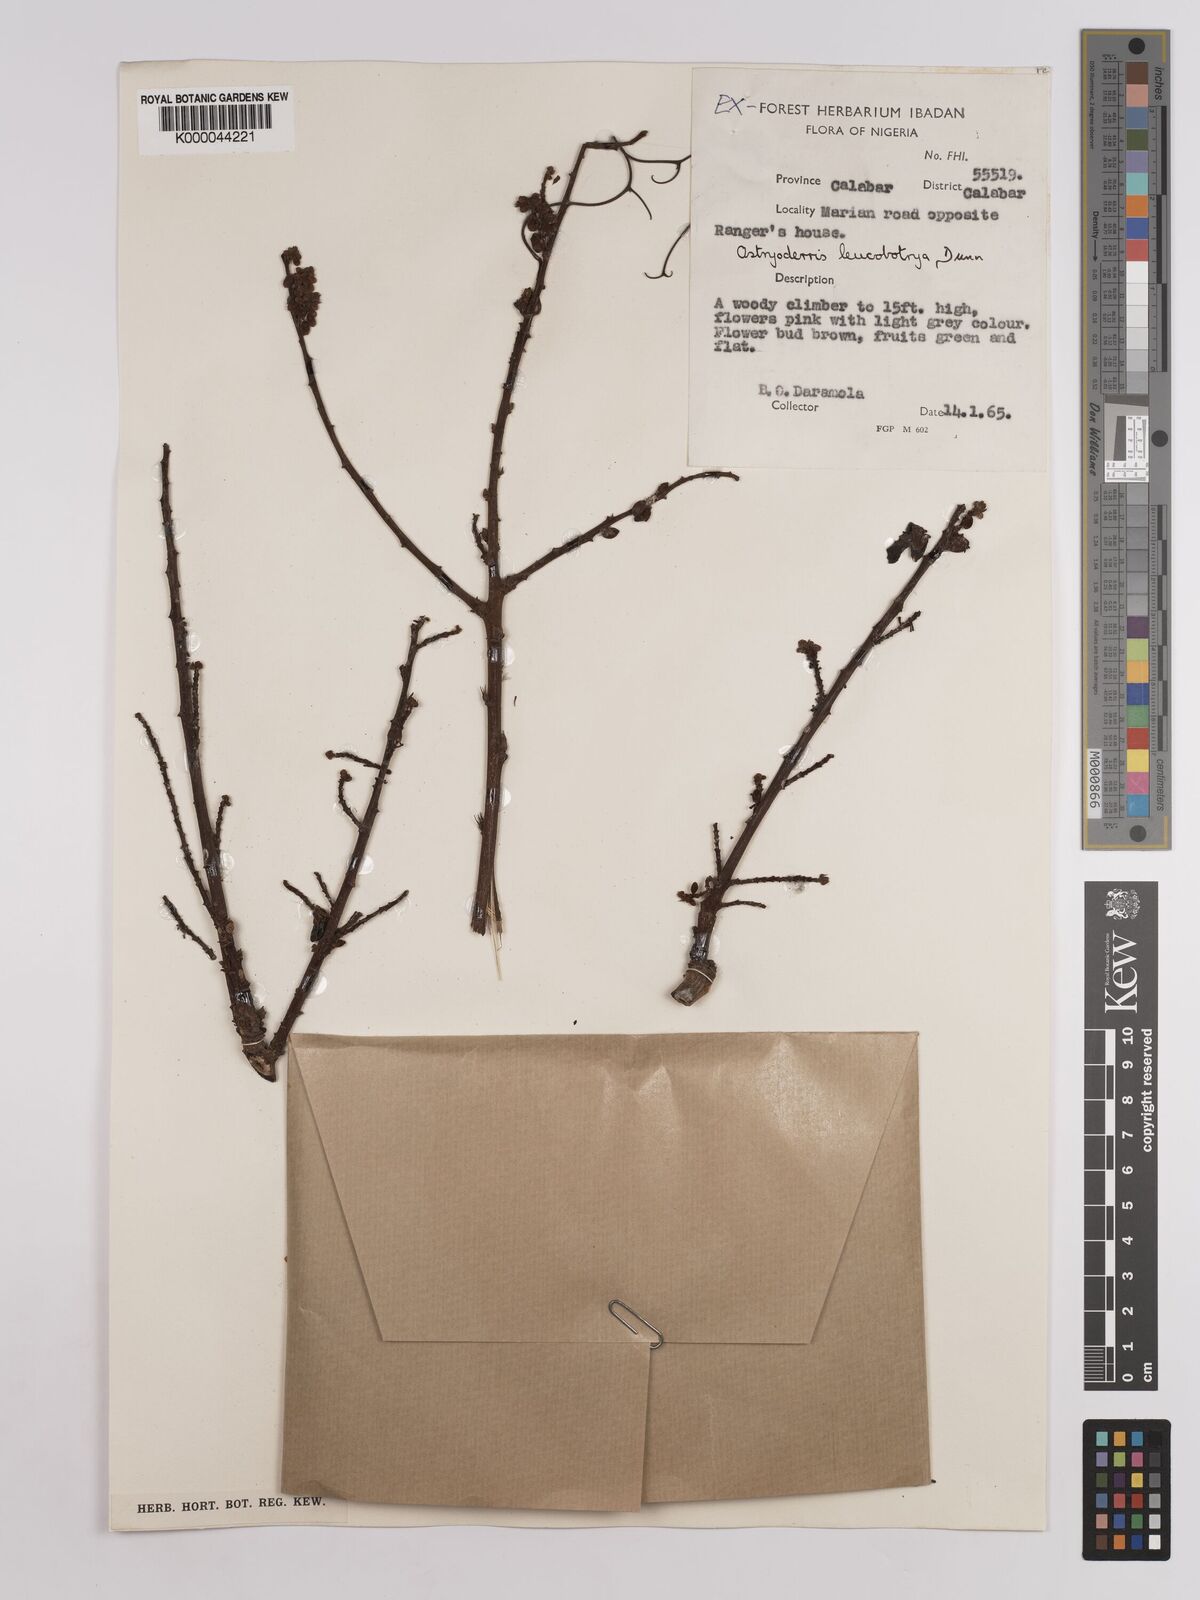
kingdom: Plantae
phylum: Tracheophyta
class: Magnoliopsida
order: Fabales
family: Fabaceae
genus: Aganope
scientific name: Aganope leucobotrya
